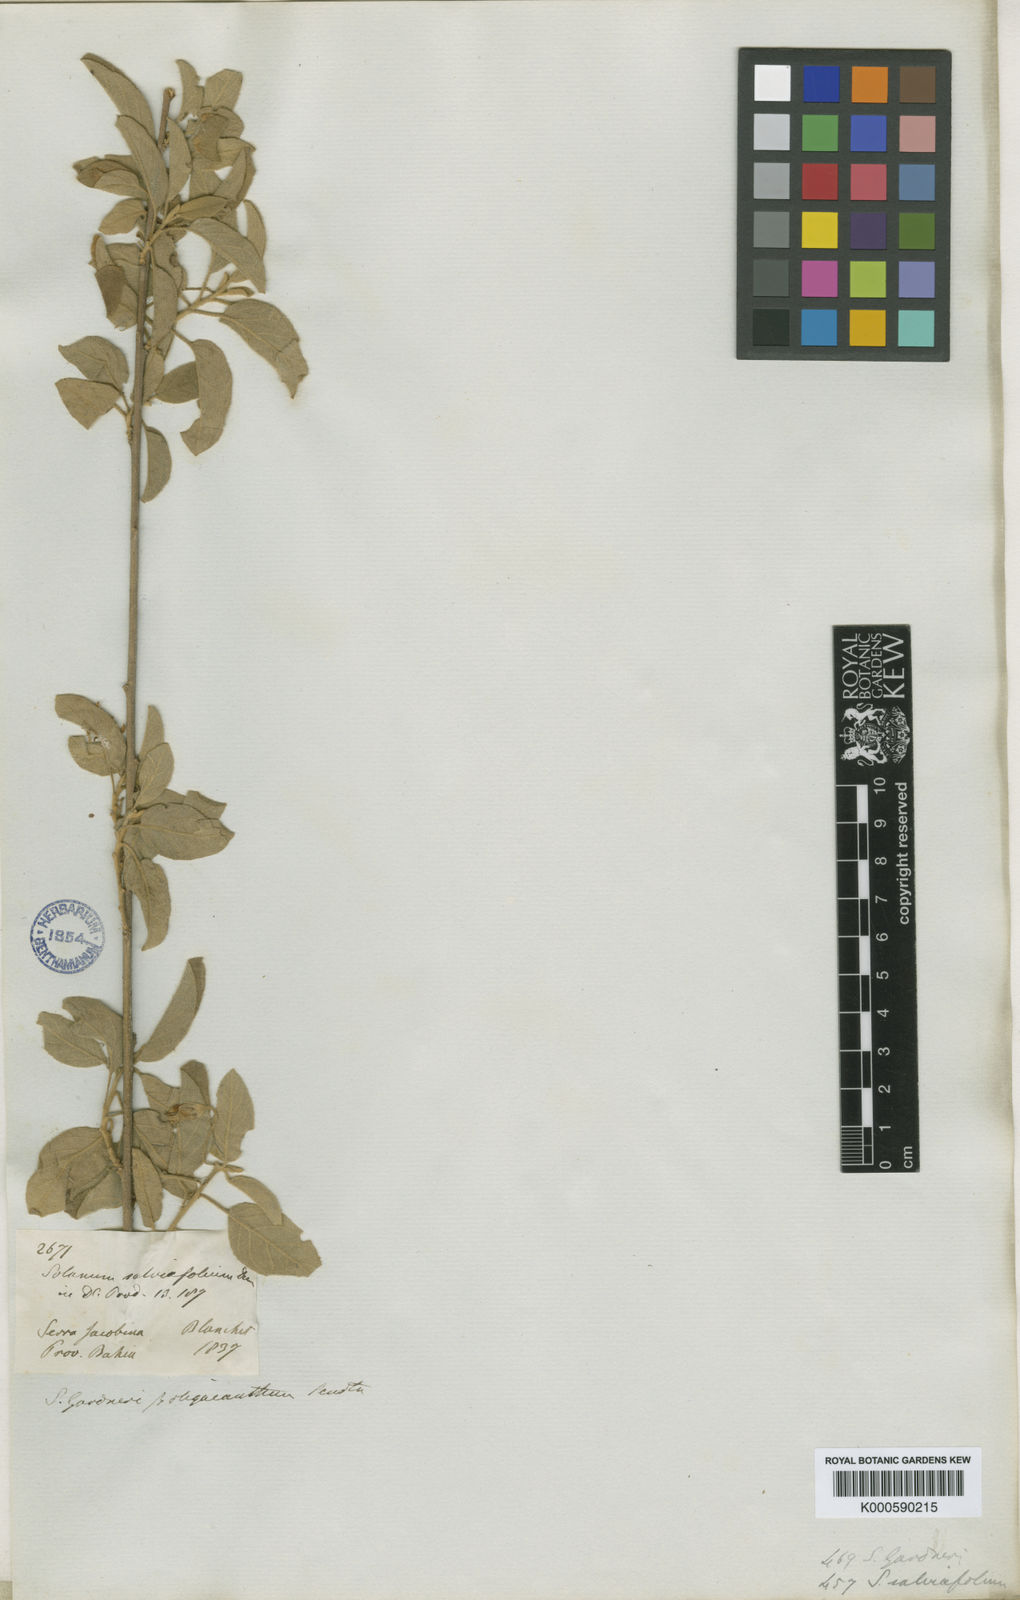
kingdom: Plantae
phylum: Tracheophyta
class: Magnoliopsida
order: Solanales
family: Solanaceae
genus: Solanum
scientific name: Solanum
